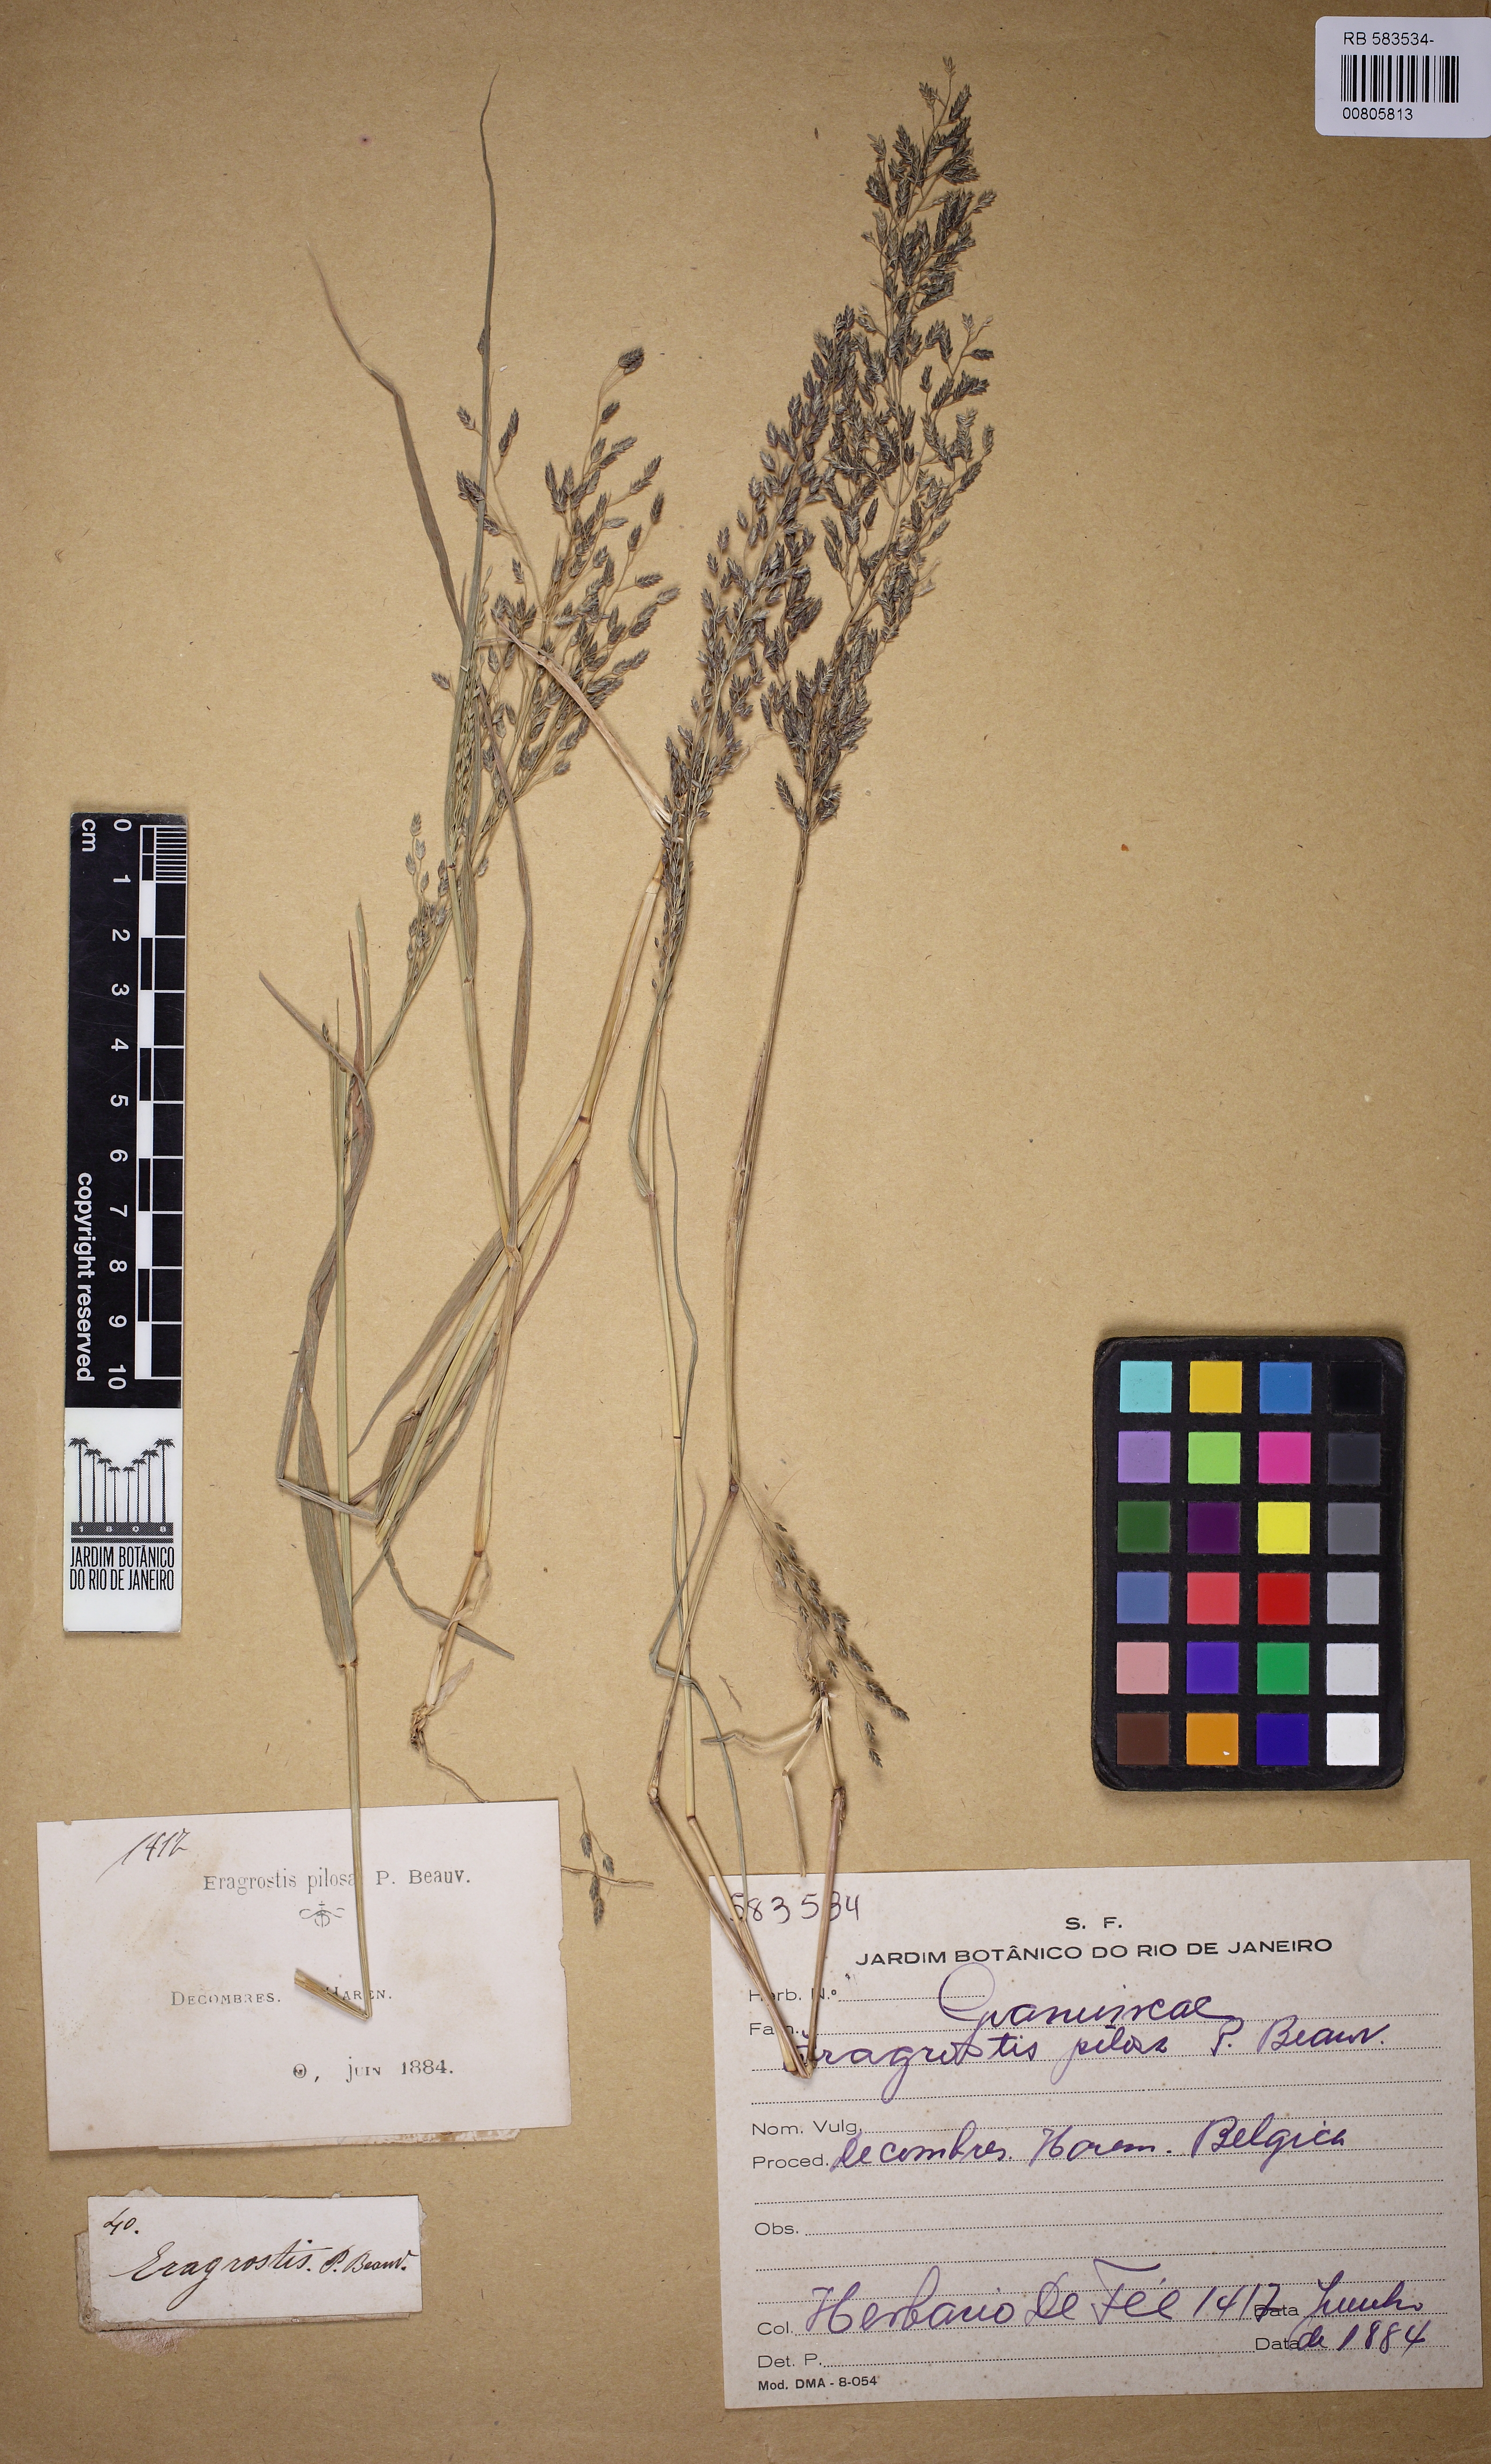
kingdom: Plantae
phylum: Tracheophyta
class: Liliopsida
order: Poales
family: Poaceae
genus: Eragrostis
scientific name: Eragrostis pilosa
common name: Indian lovegrass
